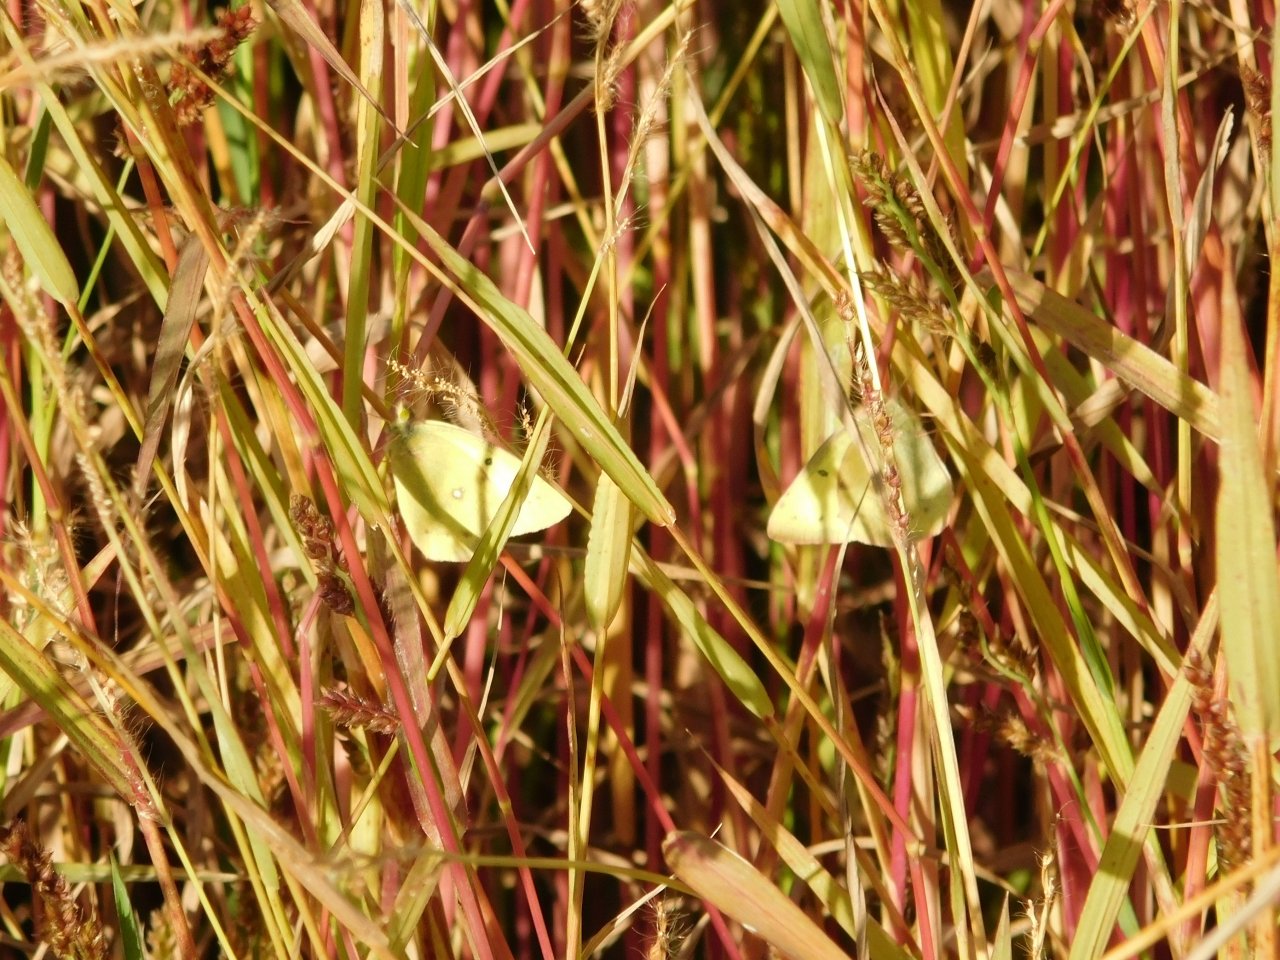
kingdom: Animalia
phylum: Arthropoda
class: Insecta
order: Lepidoptera
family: Pieridae
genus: Colias
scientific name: Colias philodice
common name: Clouded Sulphur
